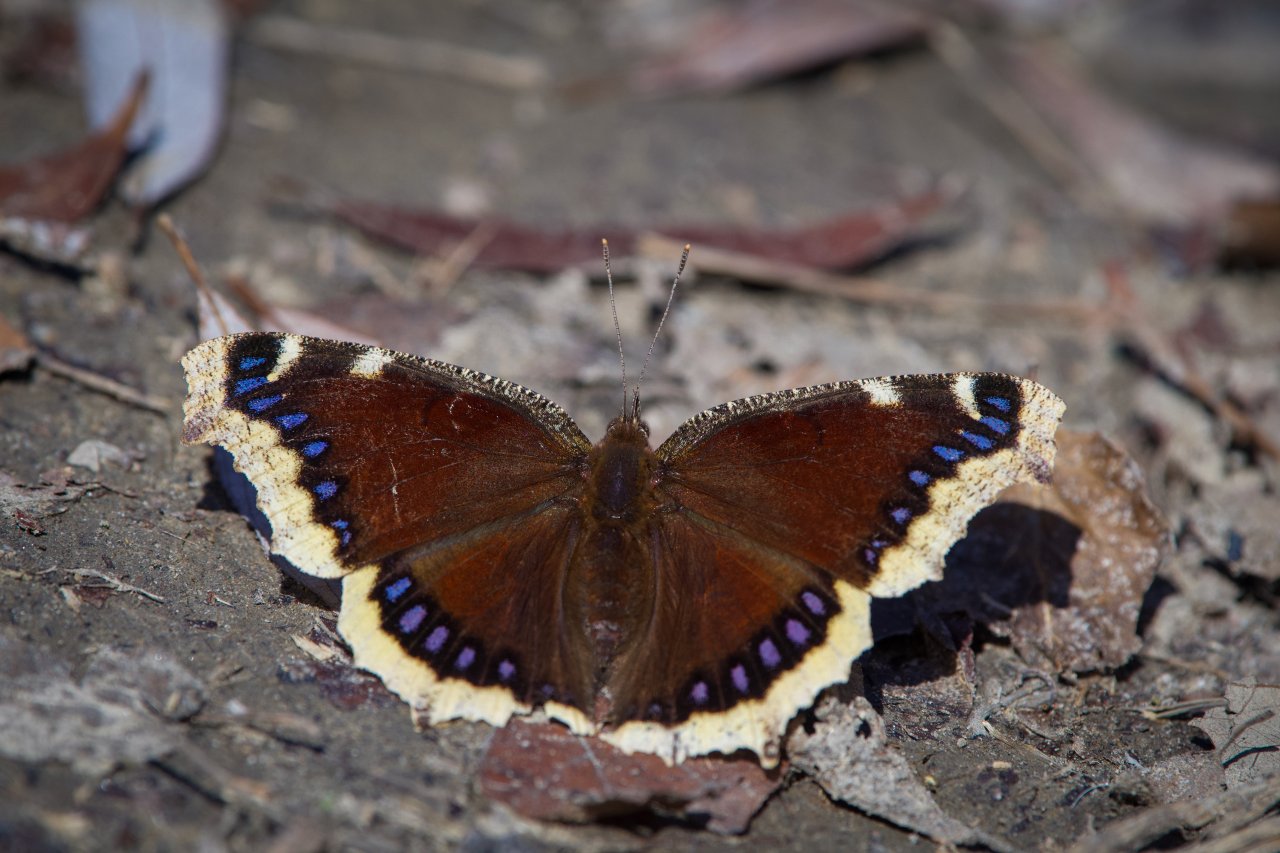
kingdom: Animalia
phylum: Arthropoda
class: Insecta
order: Lepidoptera
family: Nymphalidae
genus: Nymphalis
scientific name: Nymphalis antiopa
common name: Mourning Cloak
